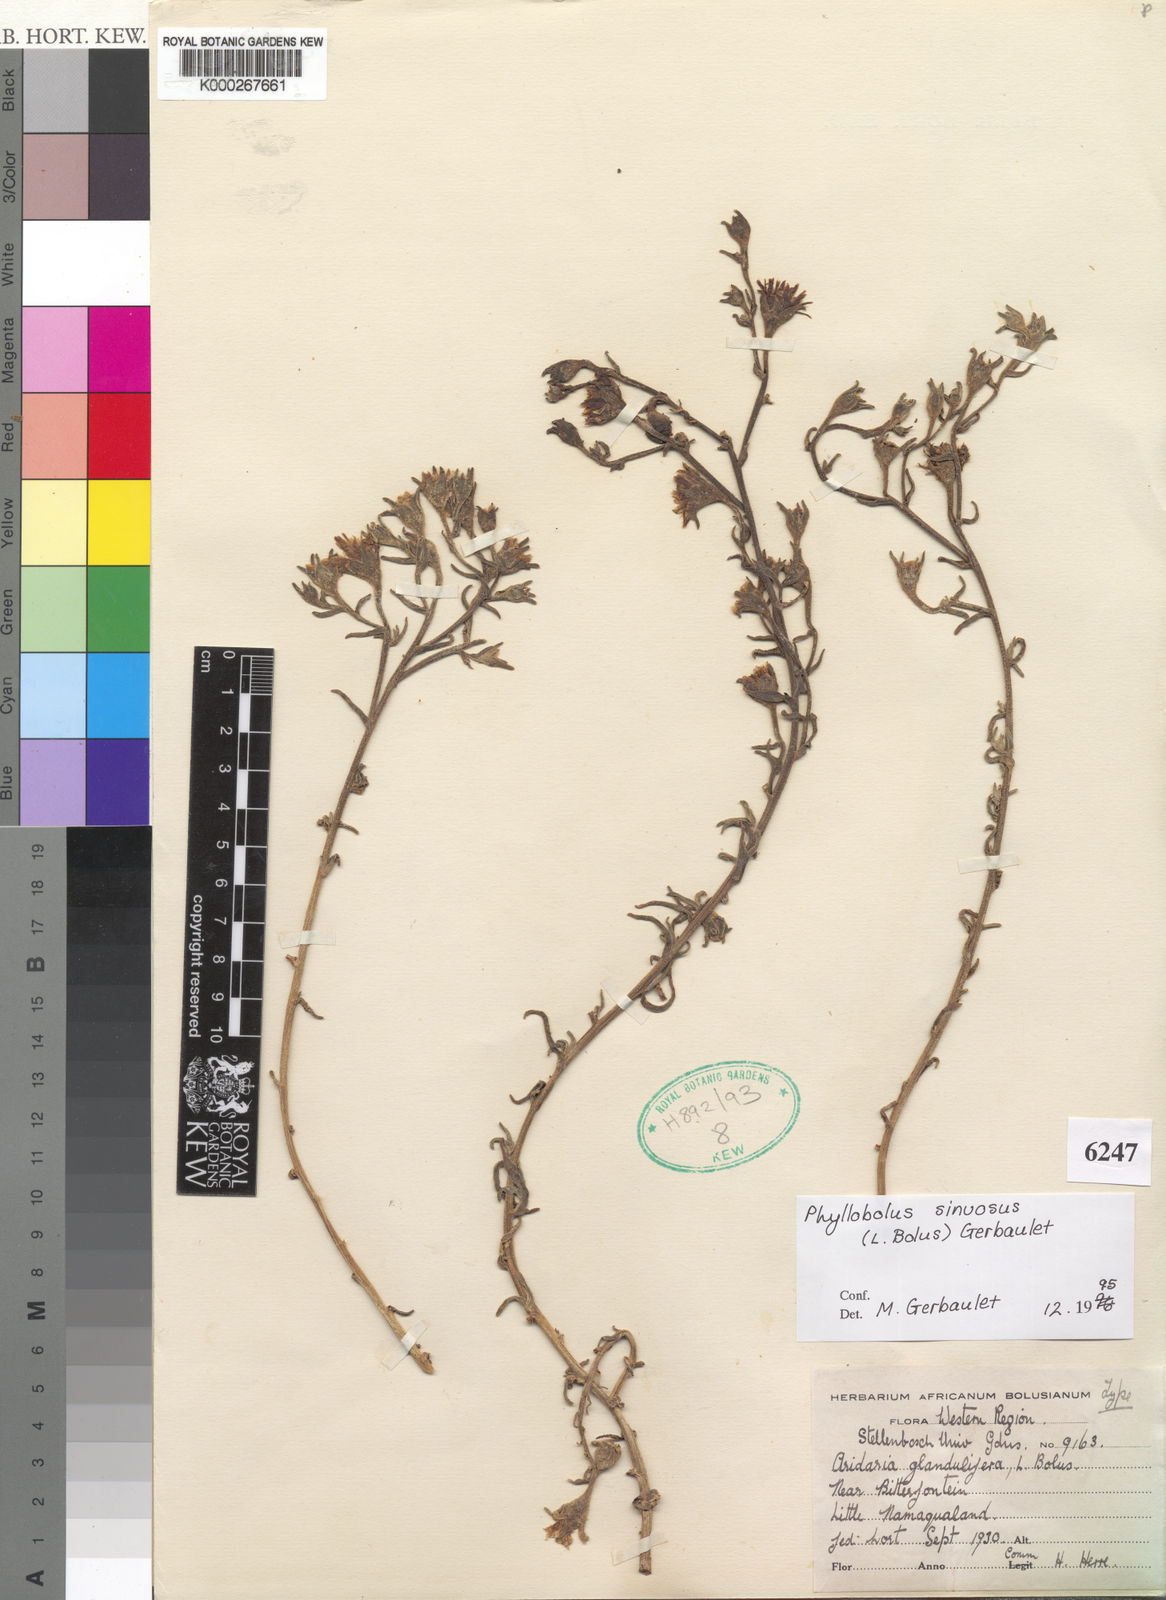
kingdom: Plantae
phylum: Tracheophyta
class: Magnoliopsida
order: Caryophyllales
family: Aizoaceae
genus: Mesembryanthemum
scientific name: Mesembryanthemum sinuosum
